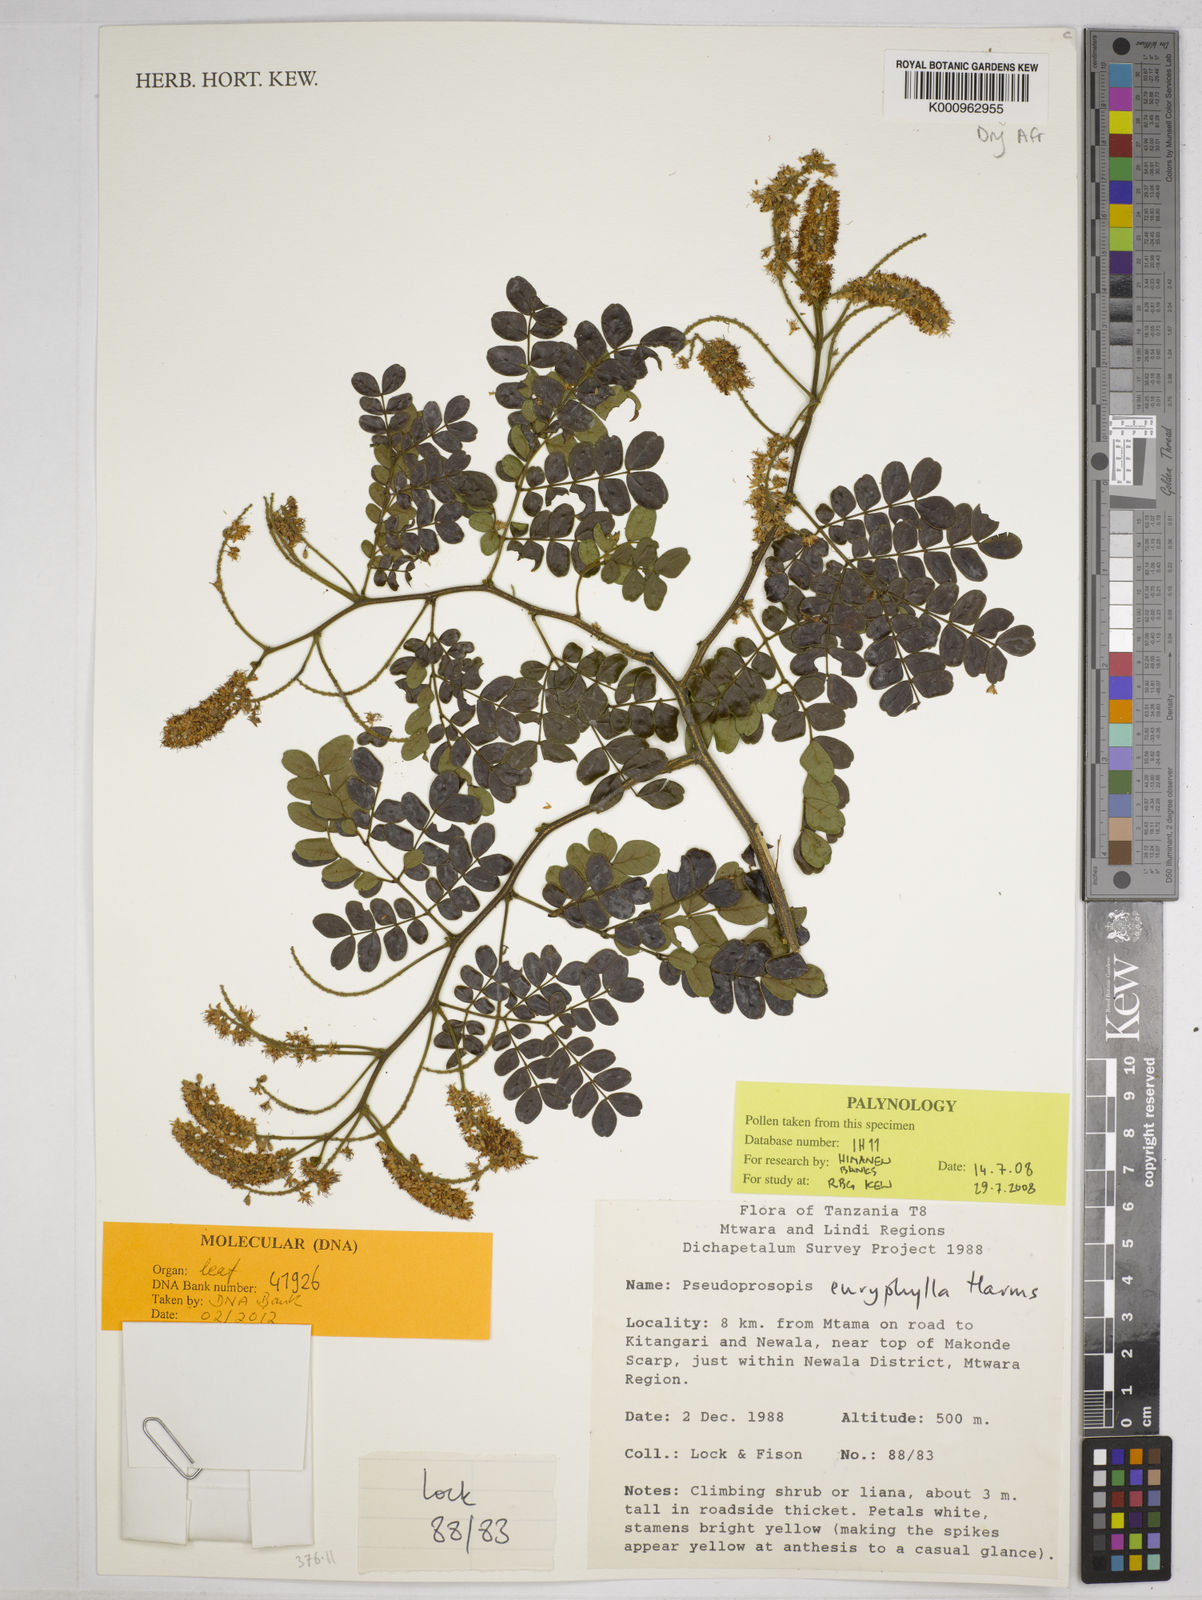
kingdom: Plantae
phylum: Tracheophyta
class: Magnoliopsida
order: Fabales
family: Fabaceae
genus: Pseudoprosopis
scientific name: Pseudoprosopis euryphylla
